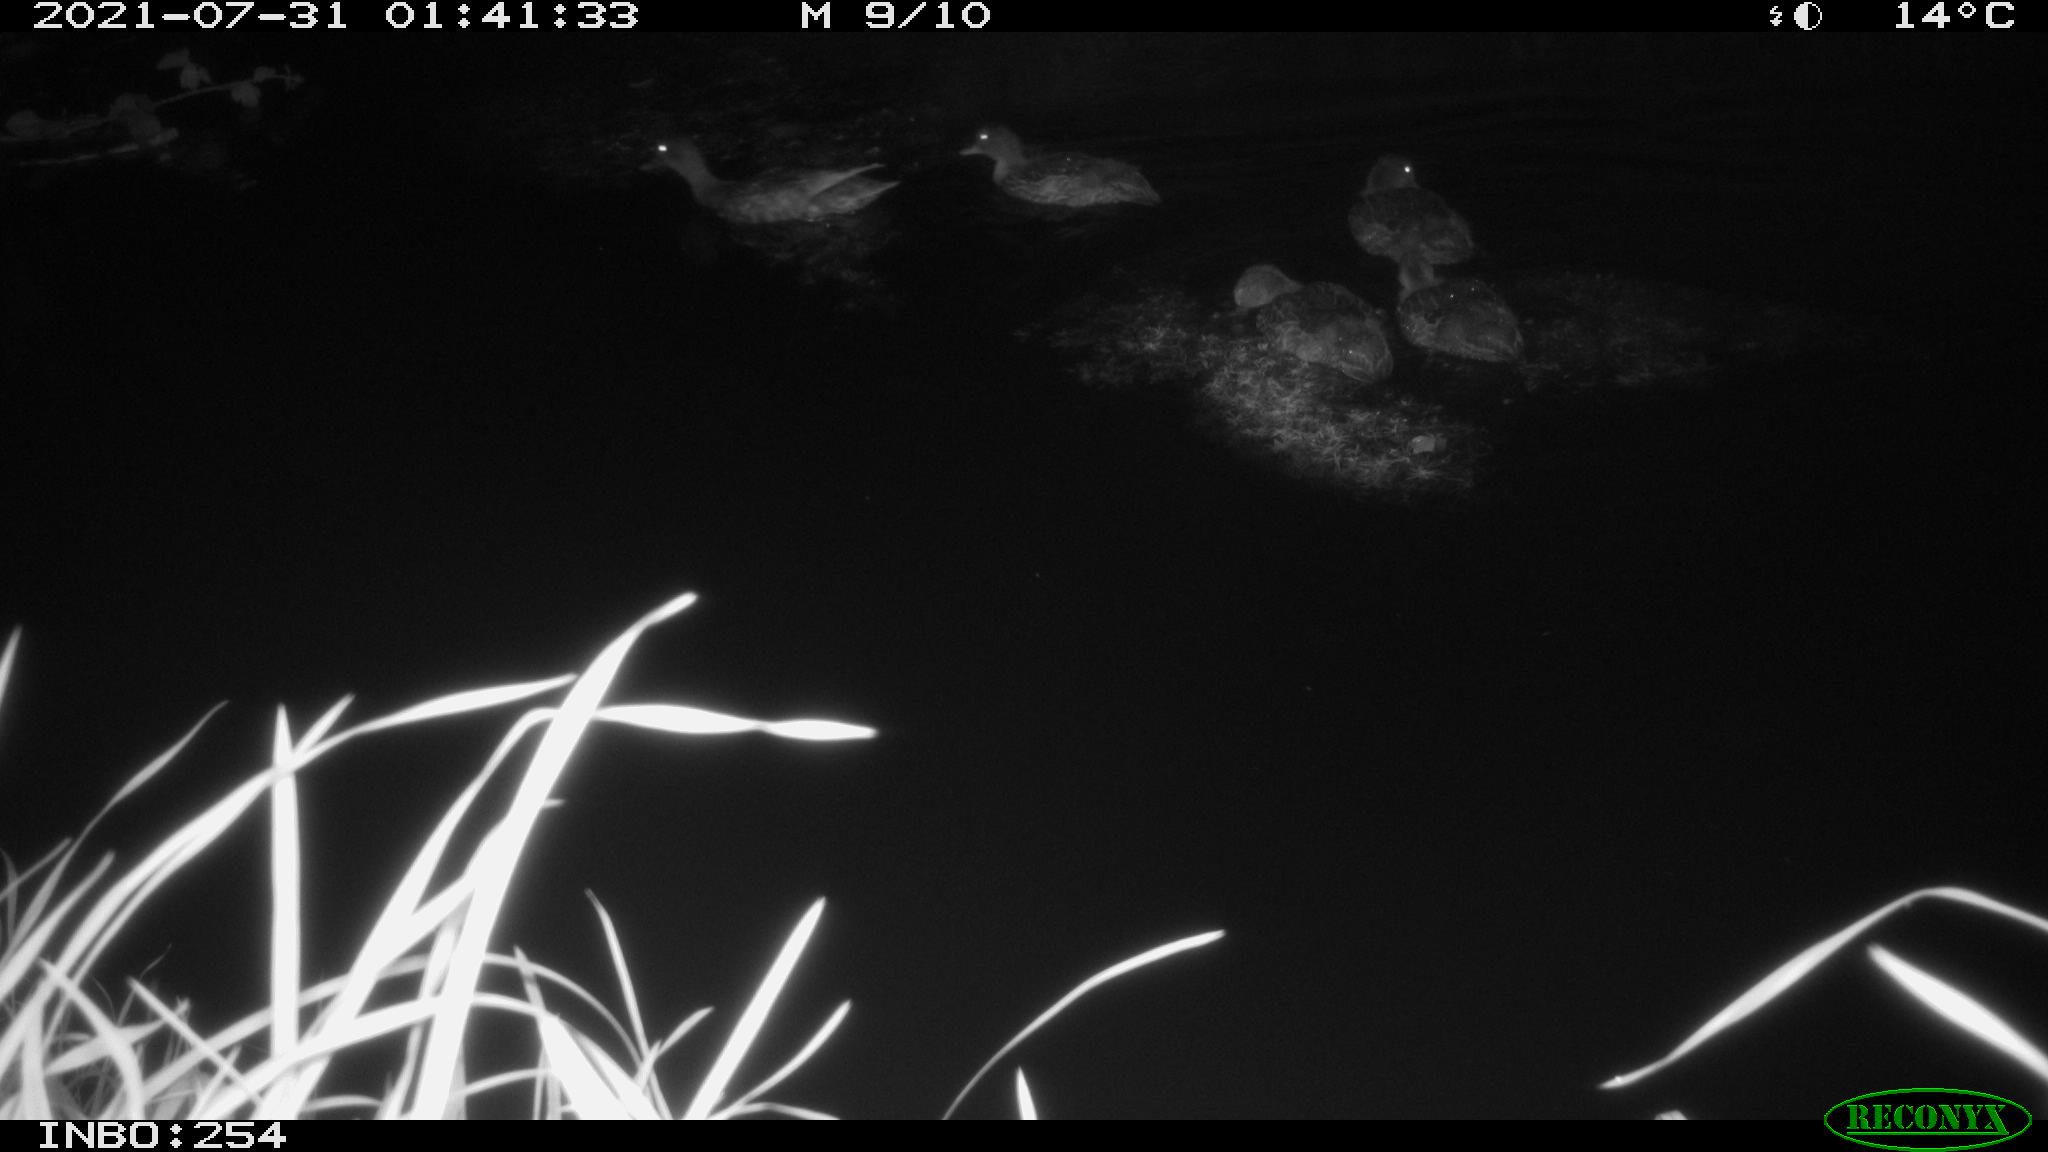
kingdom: Animalia
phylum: Chordata
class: Aves
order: Anseriformes
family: Anatidae
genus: Anas
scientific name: Anas platyrhynchos
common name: Mallard
